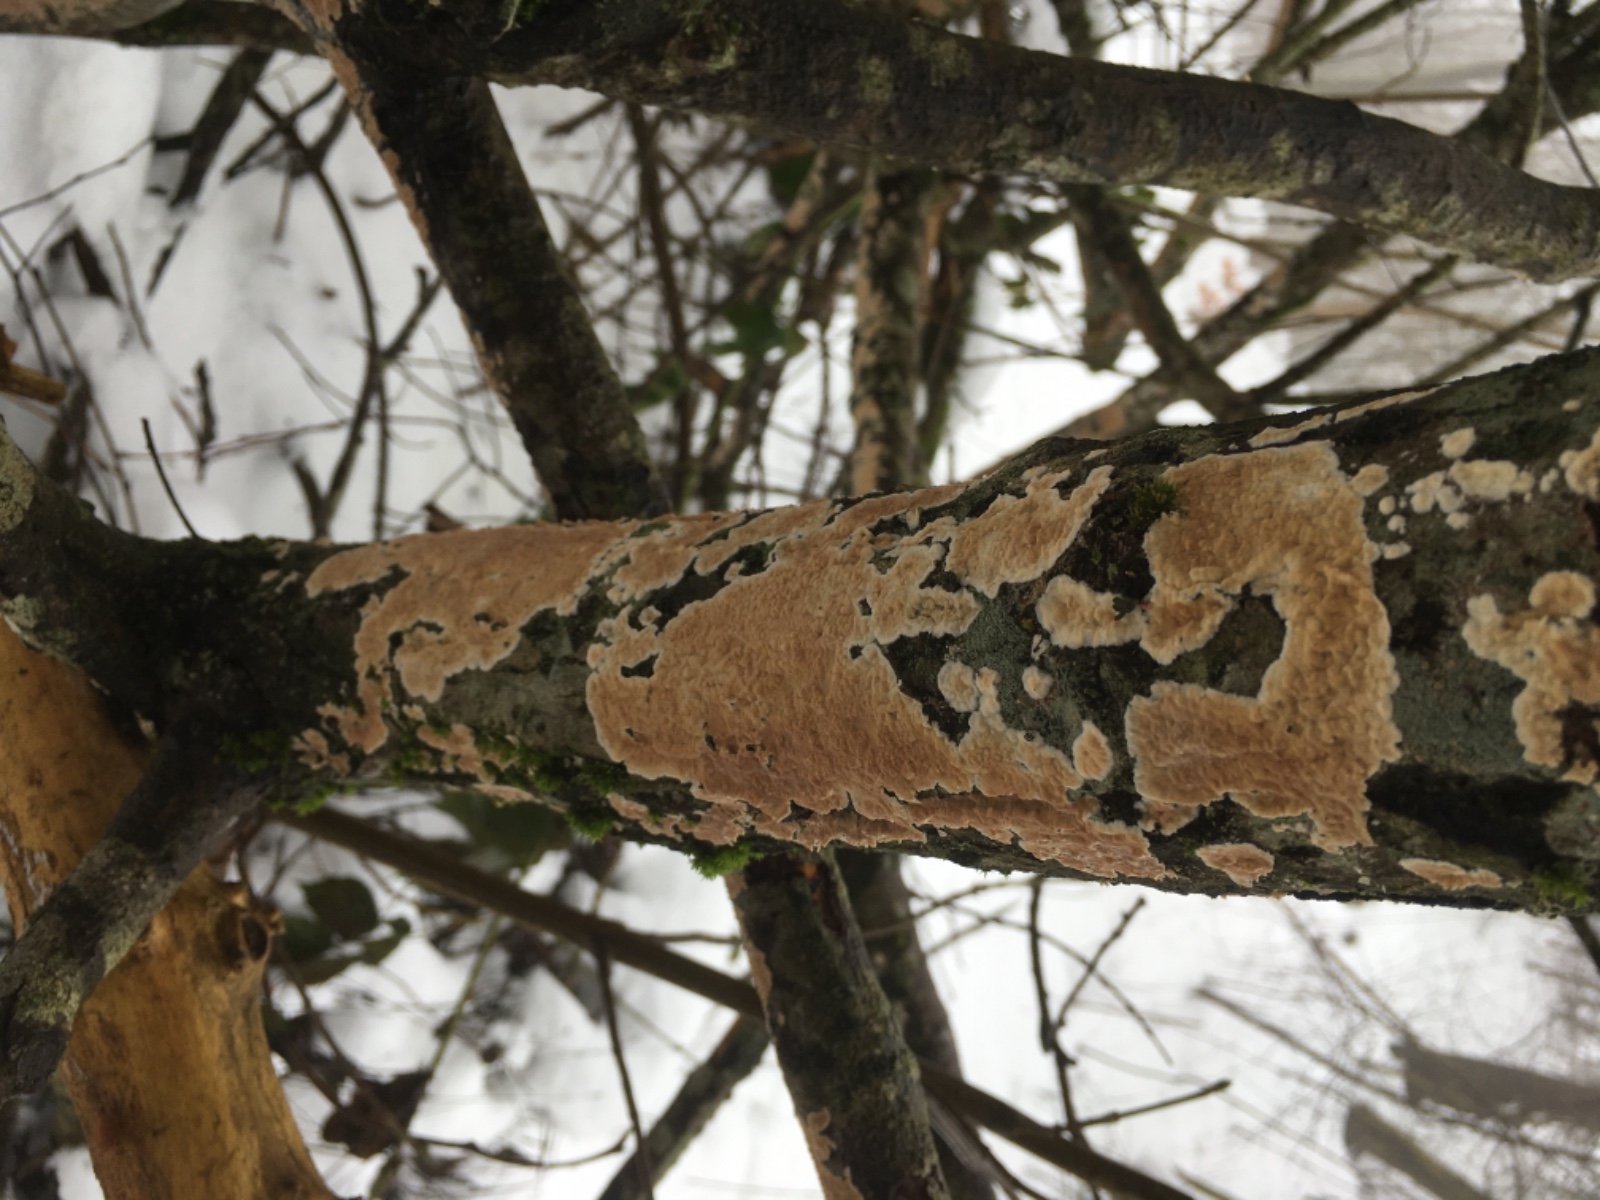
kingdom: Fungi
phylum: Basidiomycota
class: Agaricomycetes
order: Agaricales
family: Physalacriaceae
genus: Cylindrobasidium
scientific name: Cylindrobasidium evolvens
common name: sprækkehinde
